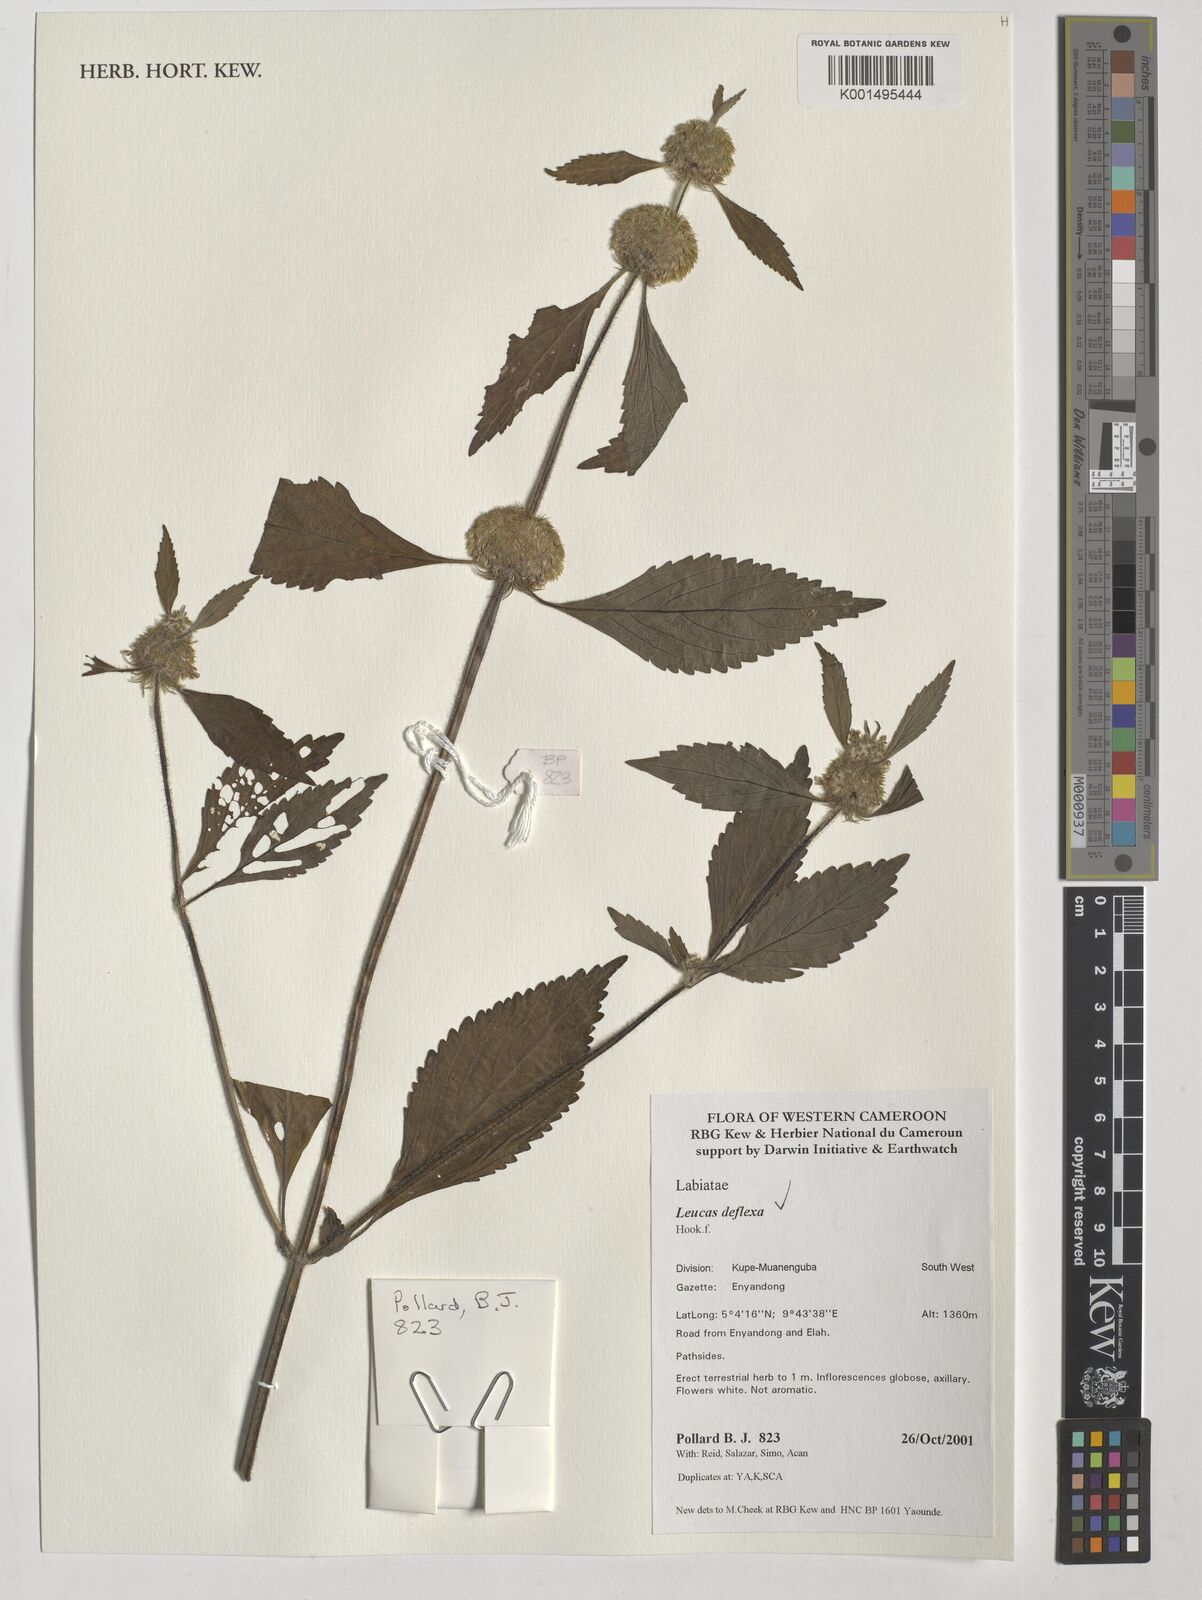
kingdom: Plantae
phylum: Tracheophyta
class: Magnoliopsida
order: Lamiales
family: Lamiaceae
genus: Leucas
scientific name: Leucas deflexa
